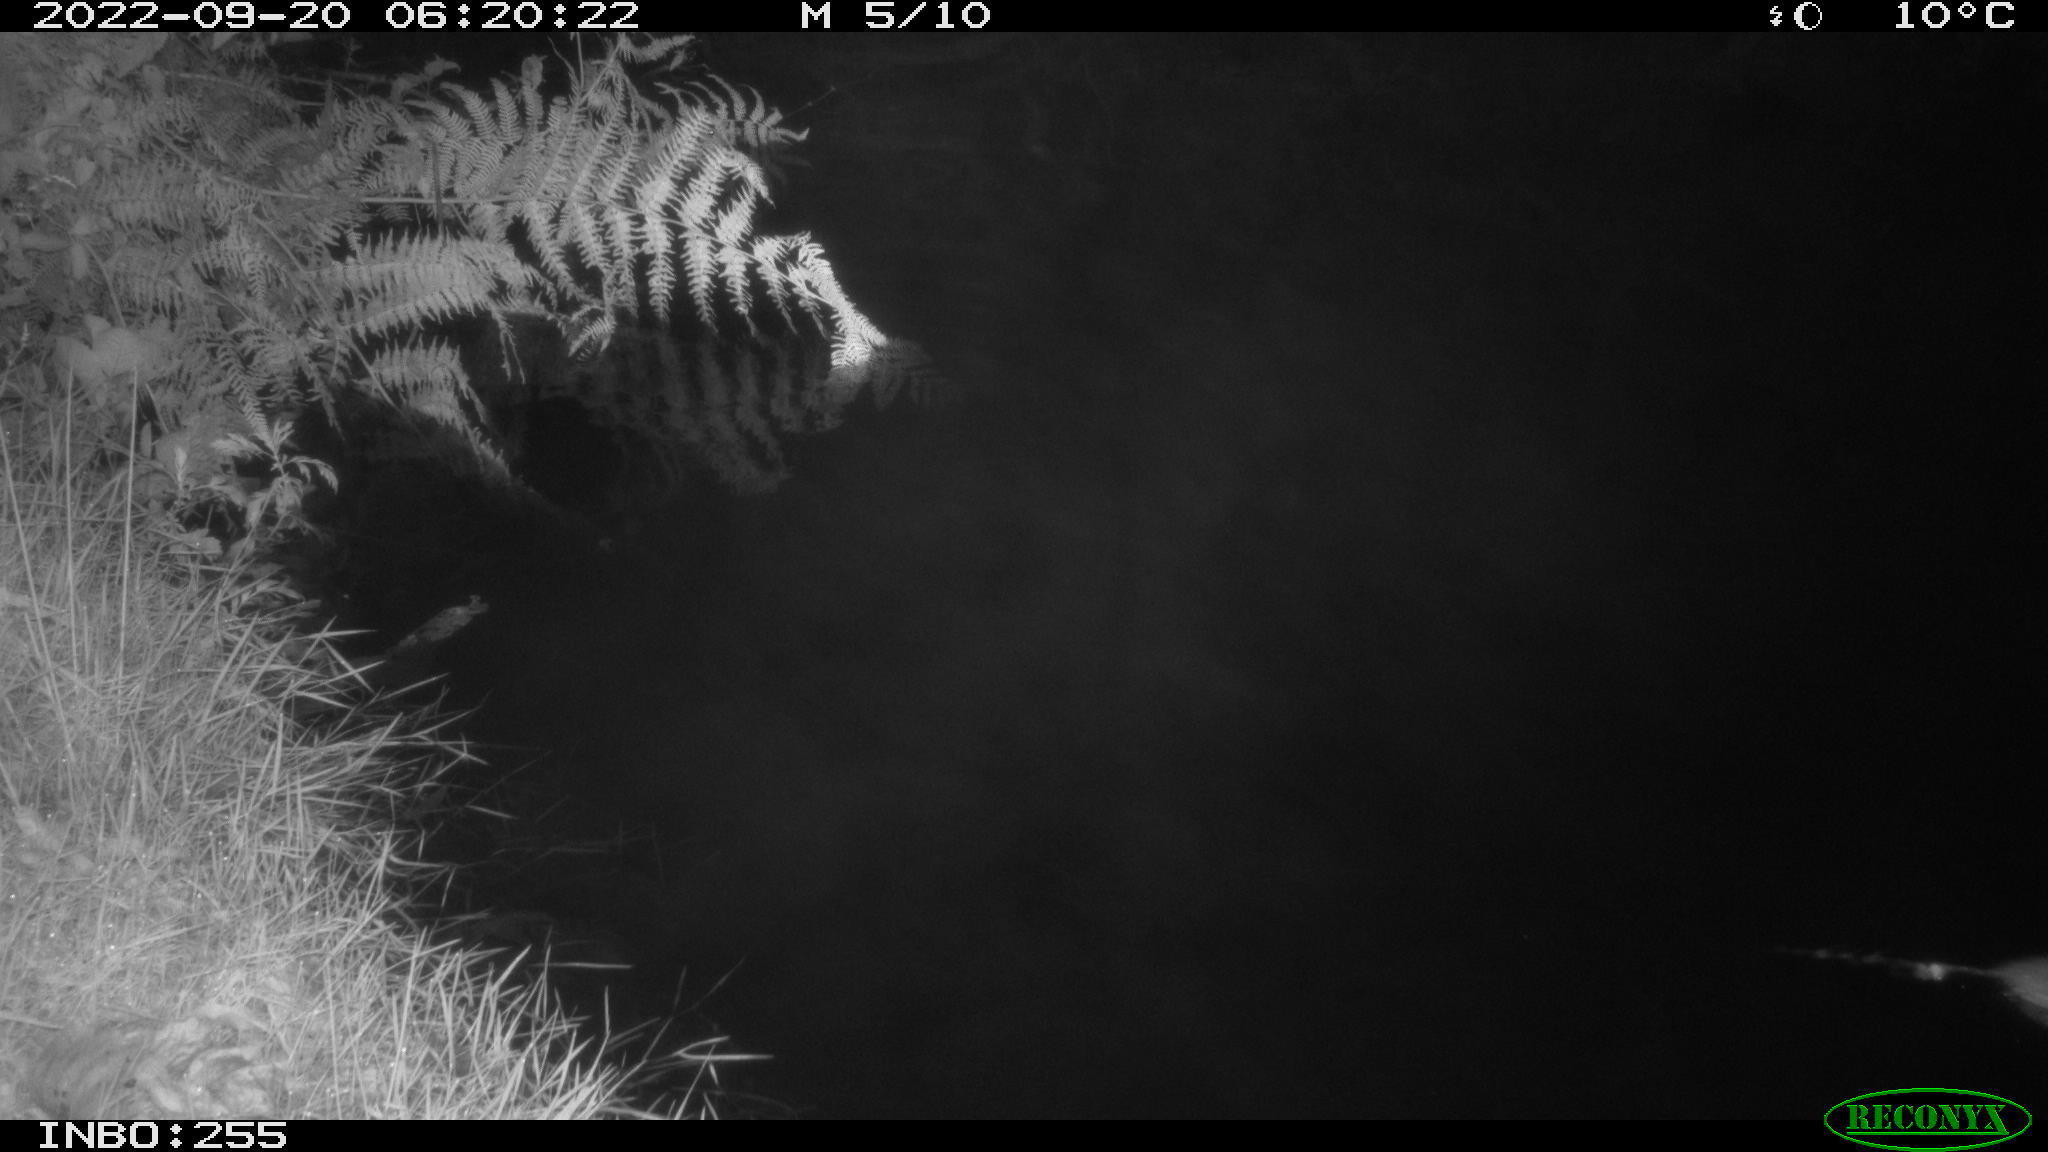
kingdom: Animalia
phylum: Chordata
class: Mammalia
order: Rodentia
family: Muridae
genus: Rattus
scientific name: Rattus norvegicus
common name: Brown rat
